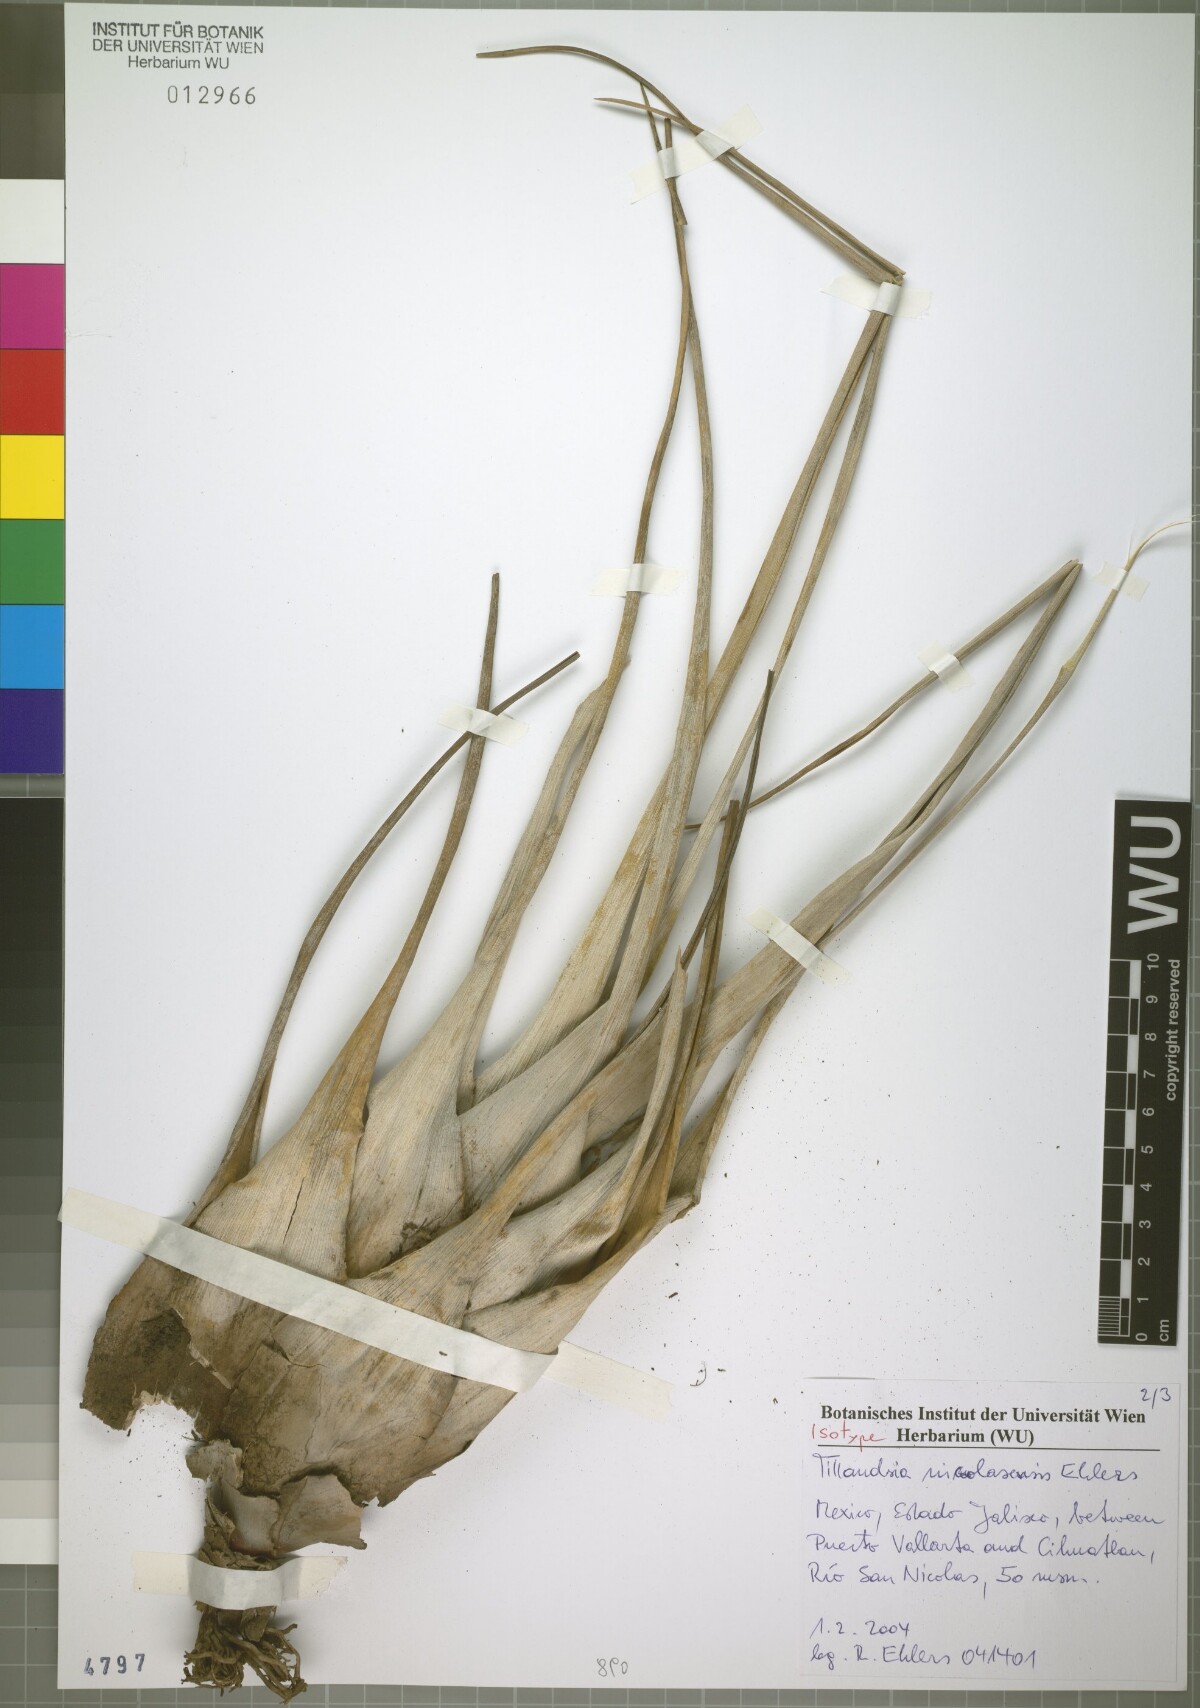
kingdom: Plantae
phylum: Tracheophyta
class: Liliopsida
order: Poales
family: Bromeliaceae
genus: Tillandsia
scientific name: Tillandsia nicolasensis
